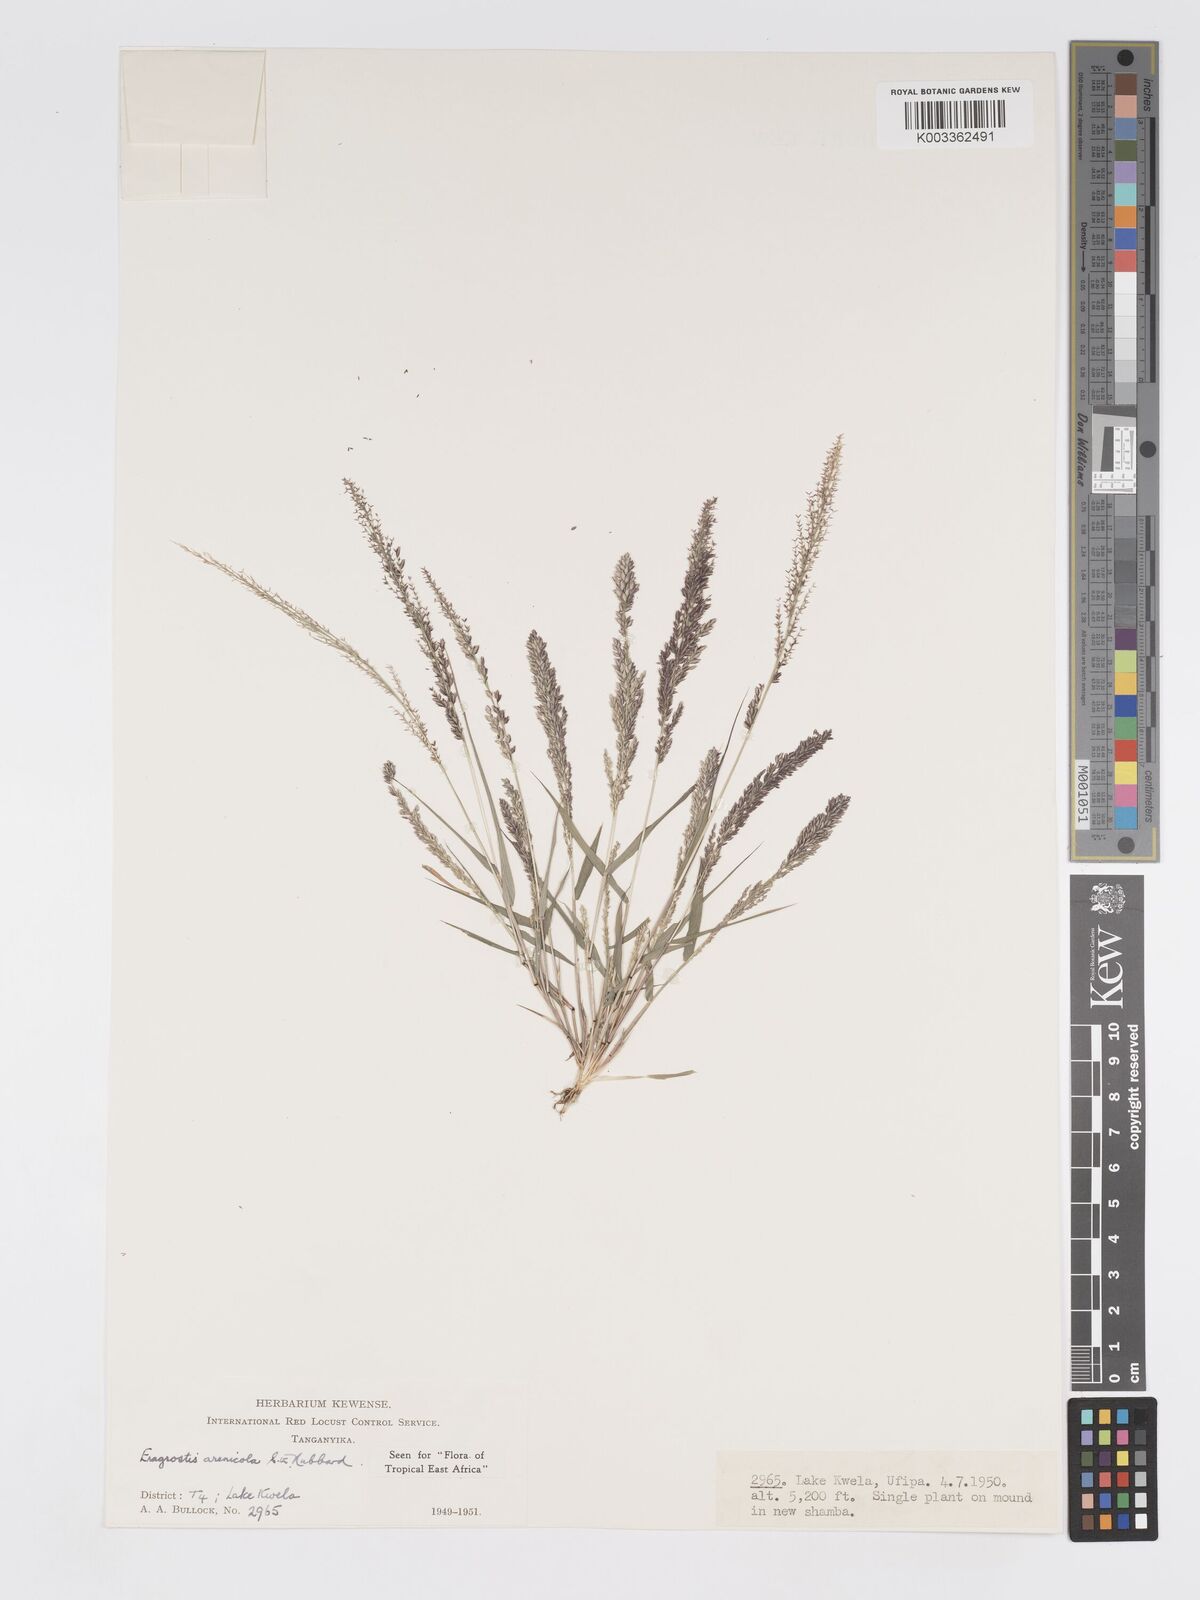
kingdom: Plantae
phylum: Tracheophyta
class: Liliopsida
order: Poales
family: Poaceae
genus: Eragrostis
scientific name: Eragrostis arenicola
